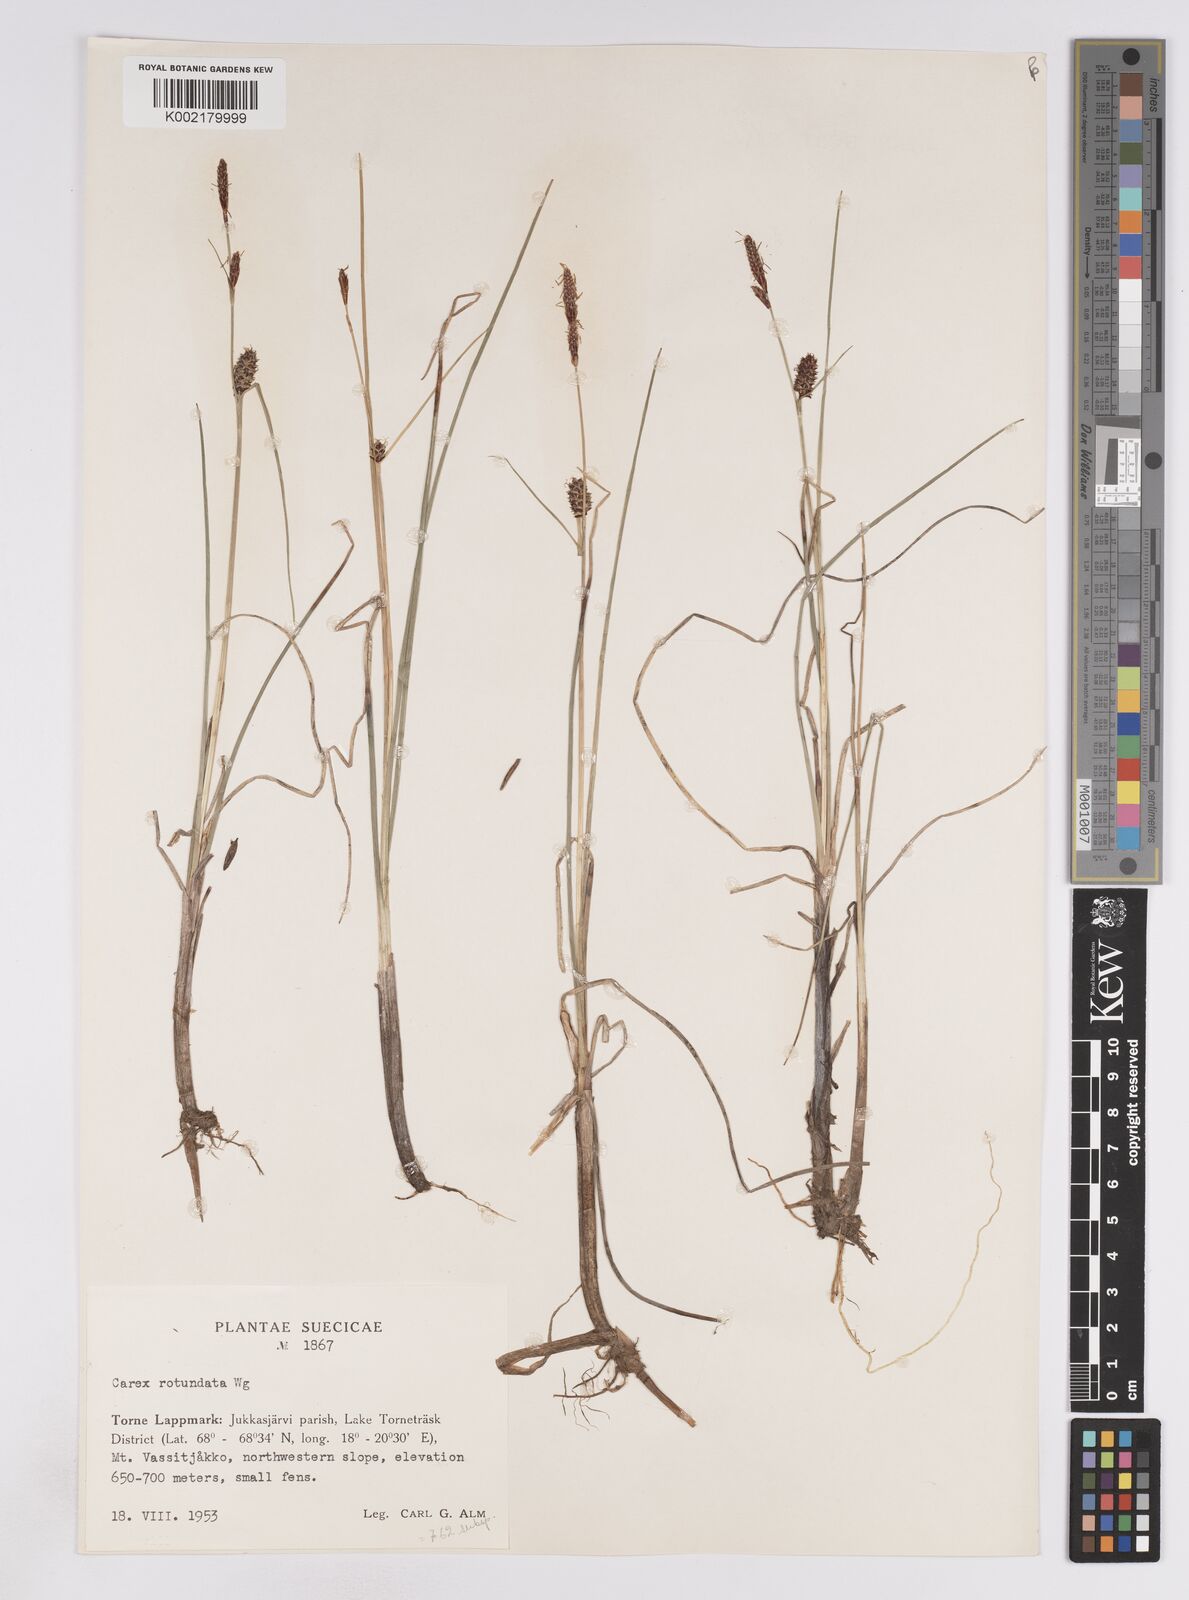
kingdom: Plantae
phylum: Tracheophyta
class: Liliopsida
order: Poales
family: Cyperaceae
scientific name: Cyperaceae
